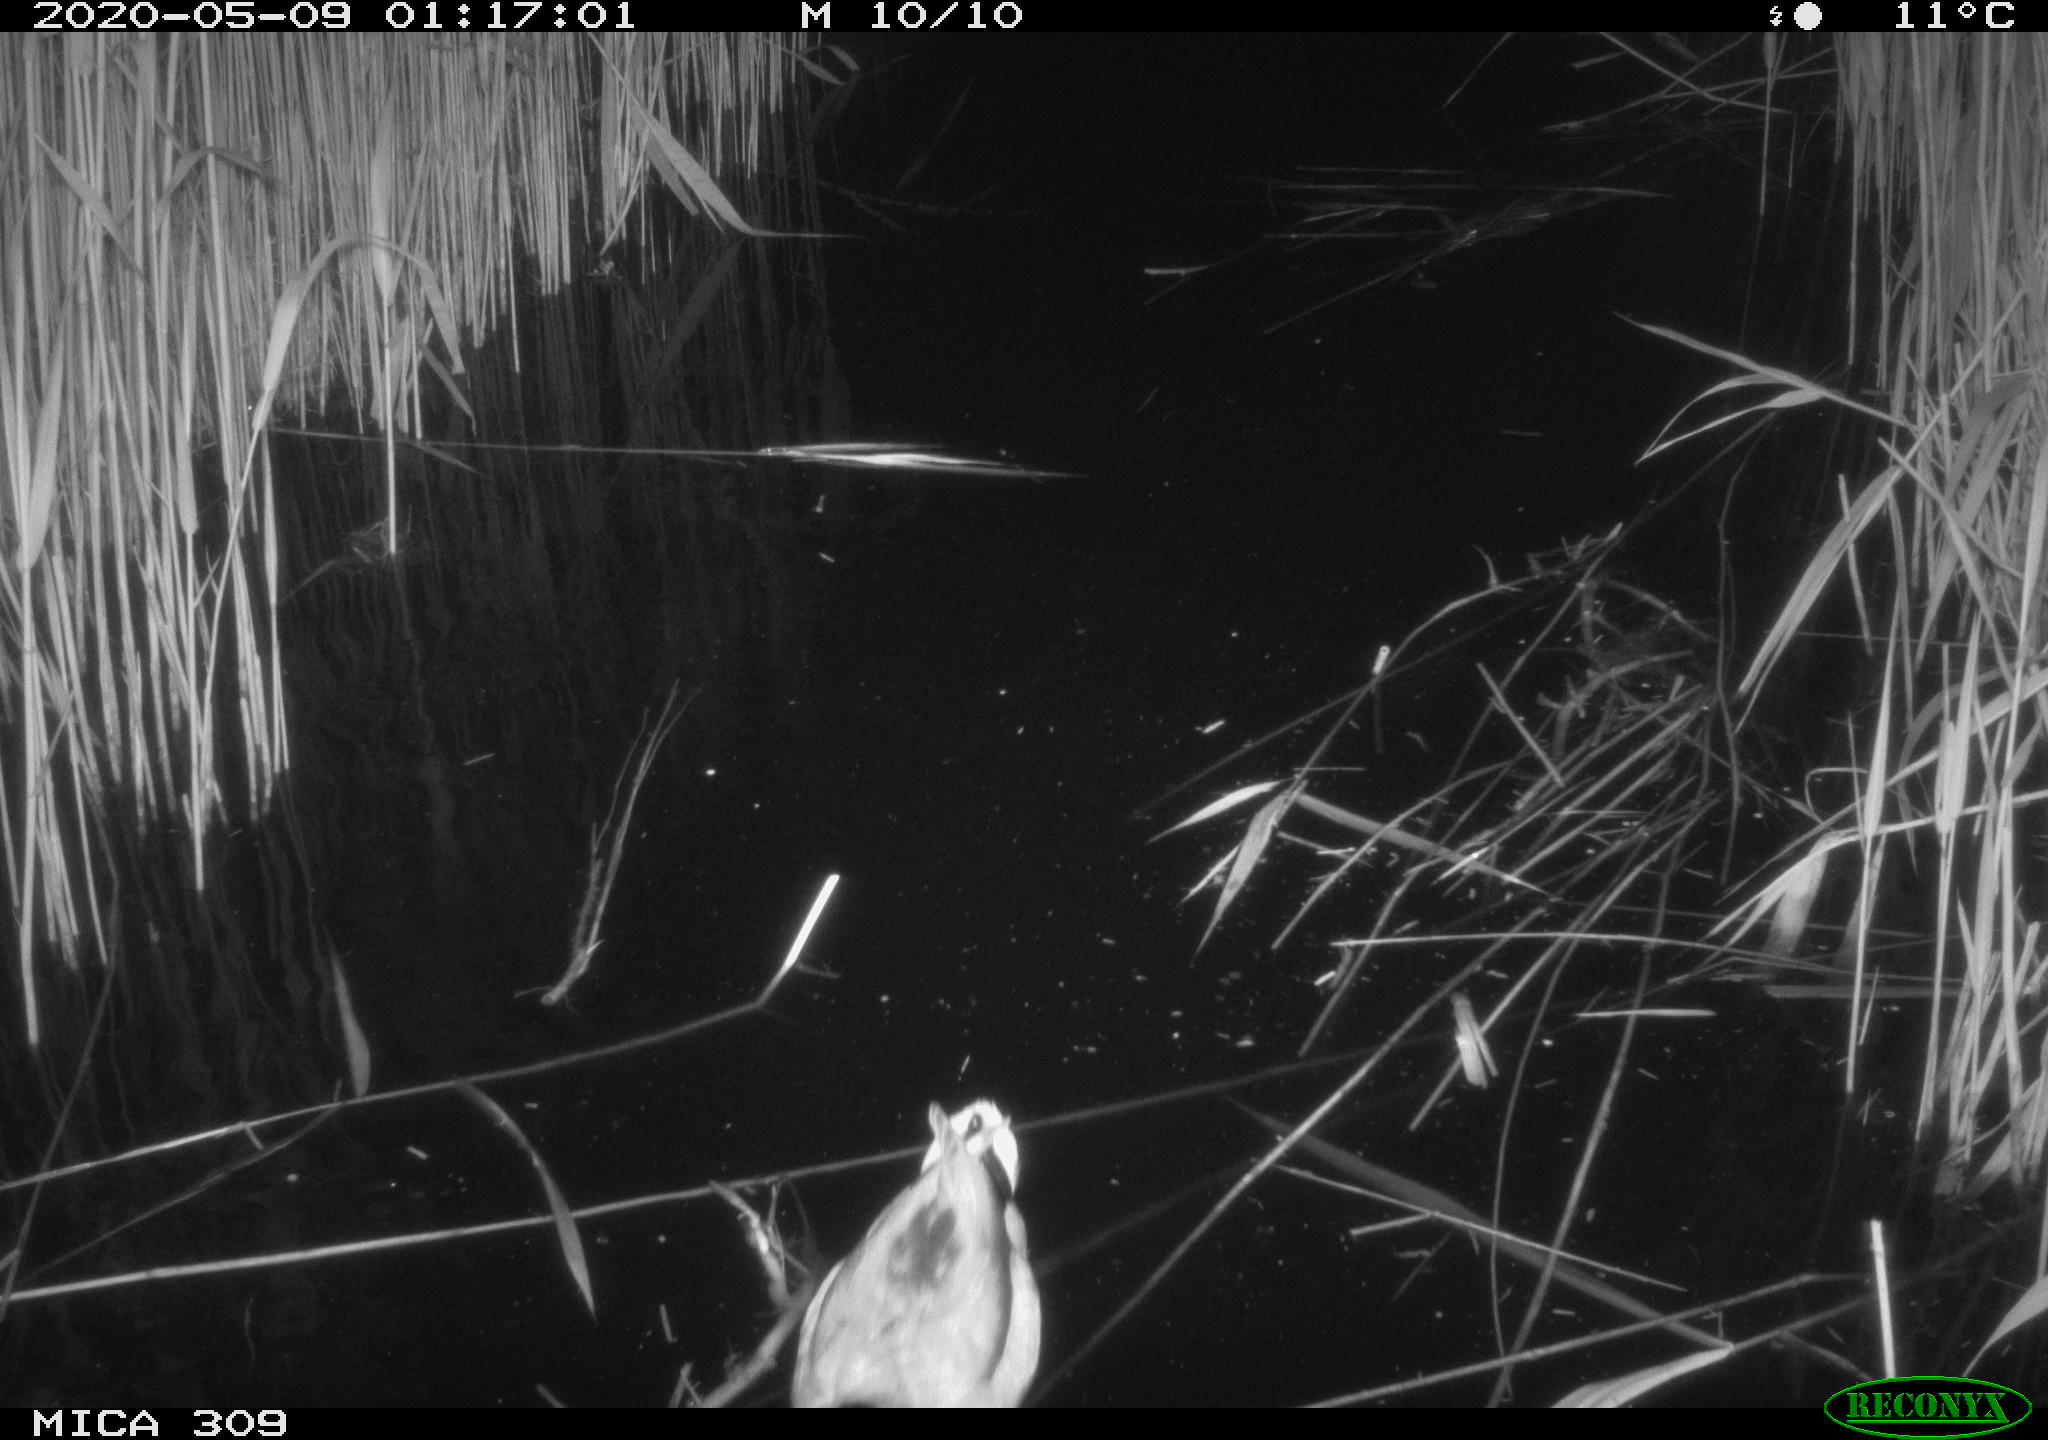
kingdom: Animalia
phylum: Chordata
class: Aves
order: Anseriformes
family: Anatidae
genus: Anas
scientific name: Anas platyrhynchos
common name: Mallard
